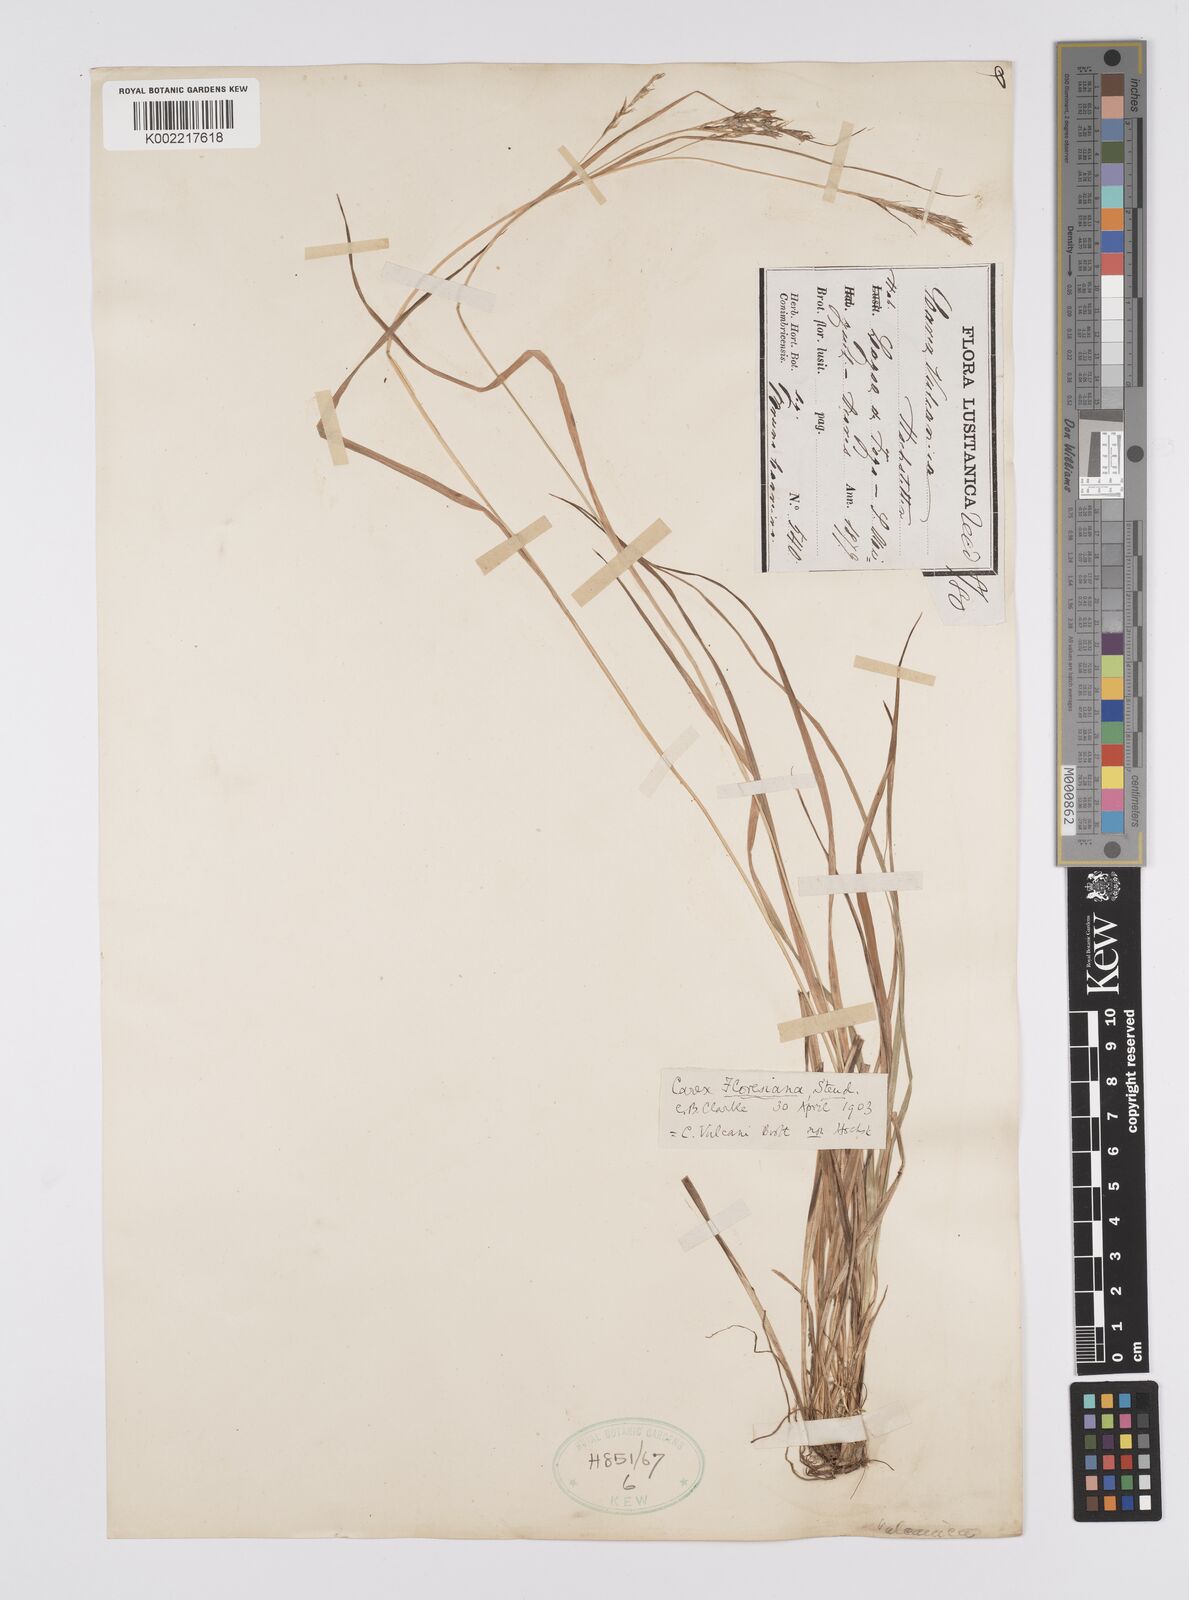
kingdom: Plantae
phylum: Tracheophyta
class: Liliopsida
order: Poales
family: Cyperaceae
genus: Carex
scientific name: Carex vulcani
